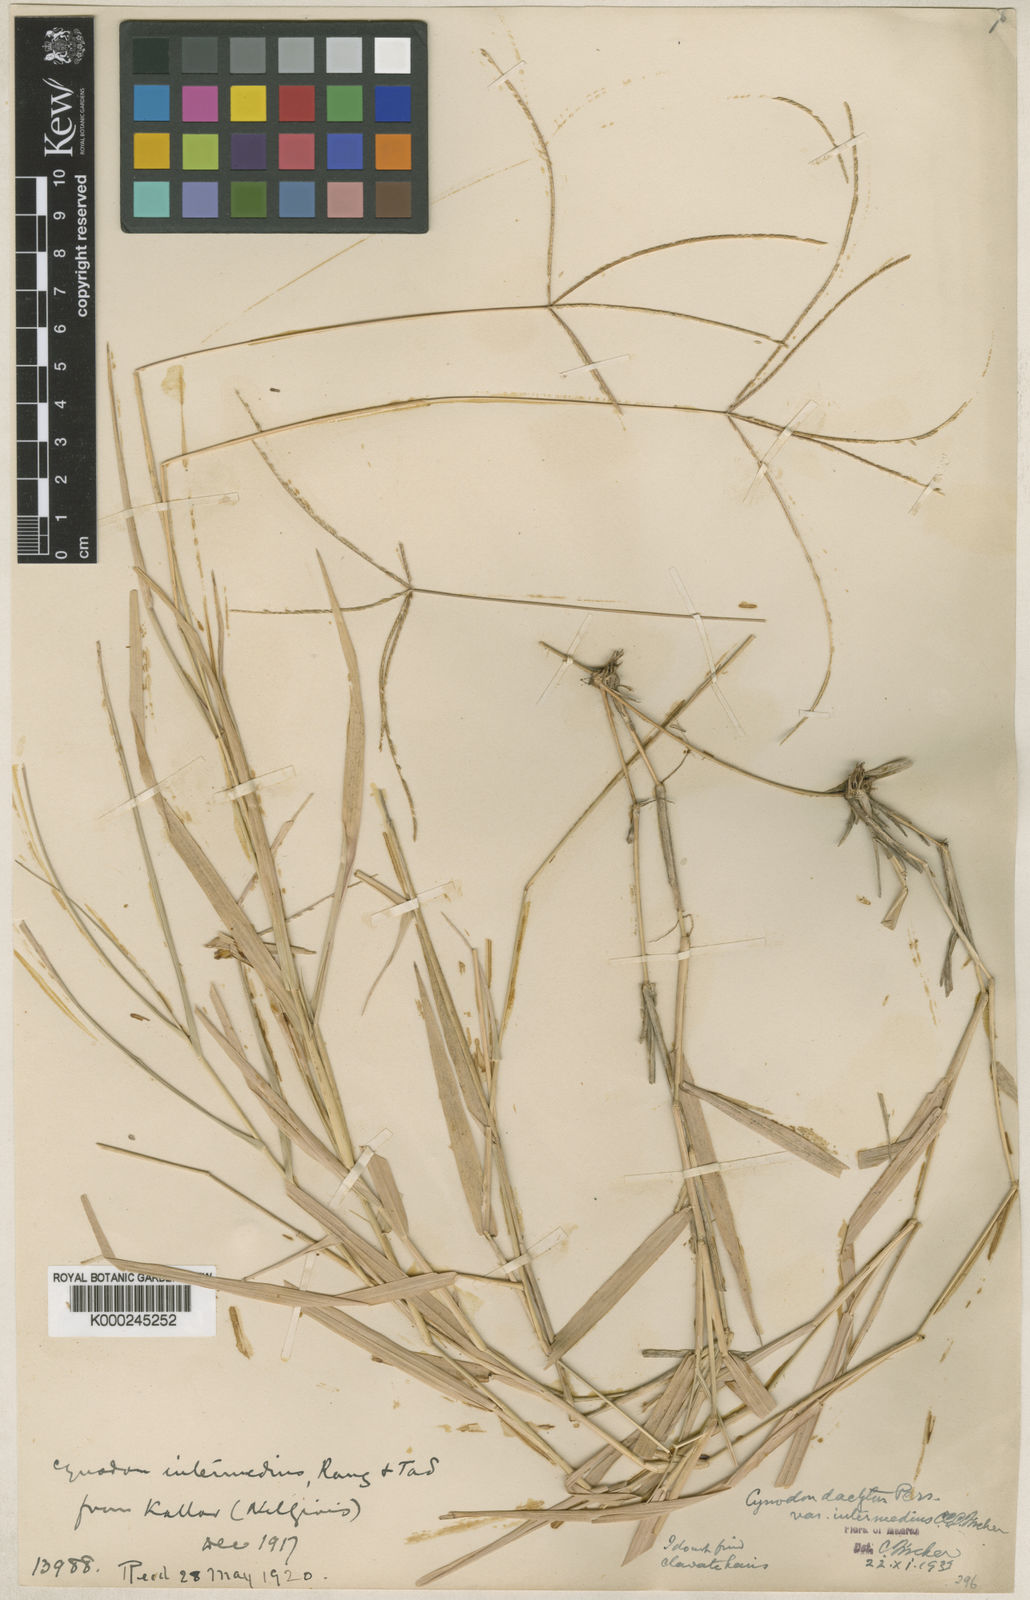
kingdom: Plantae
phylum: Tracheophyta
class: Liliopsida
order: Poales
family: Poaceae
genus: Cynodon
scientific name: Cynodon
